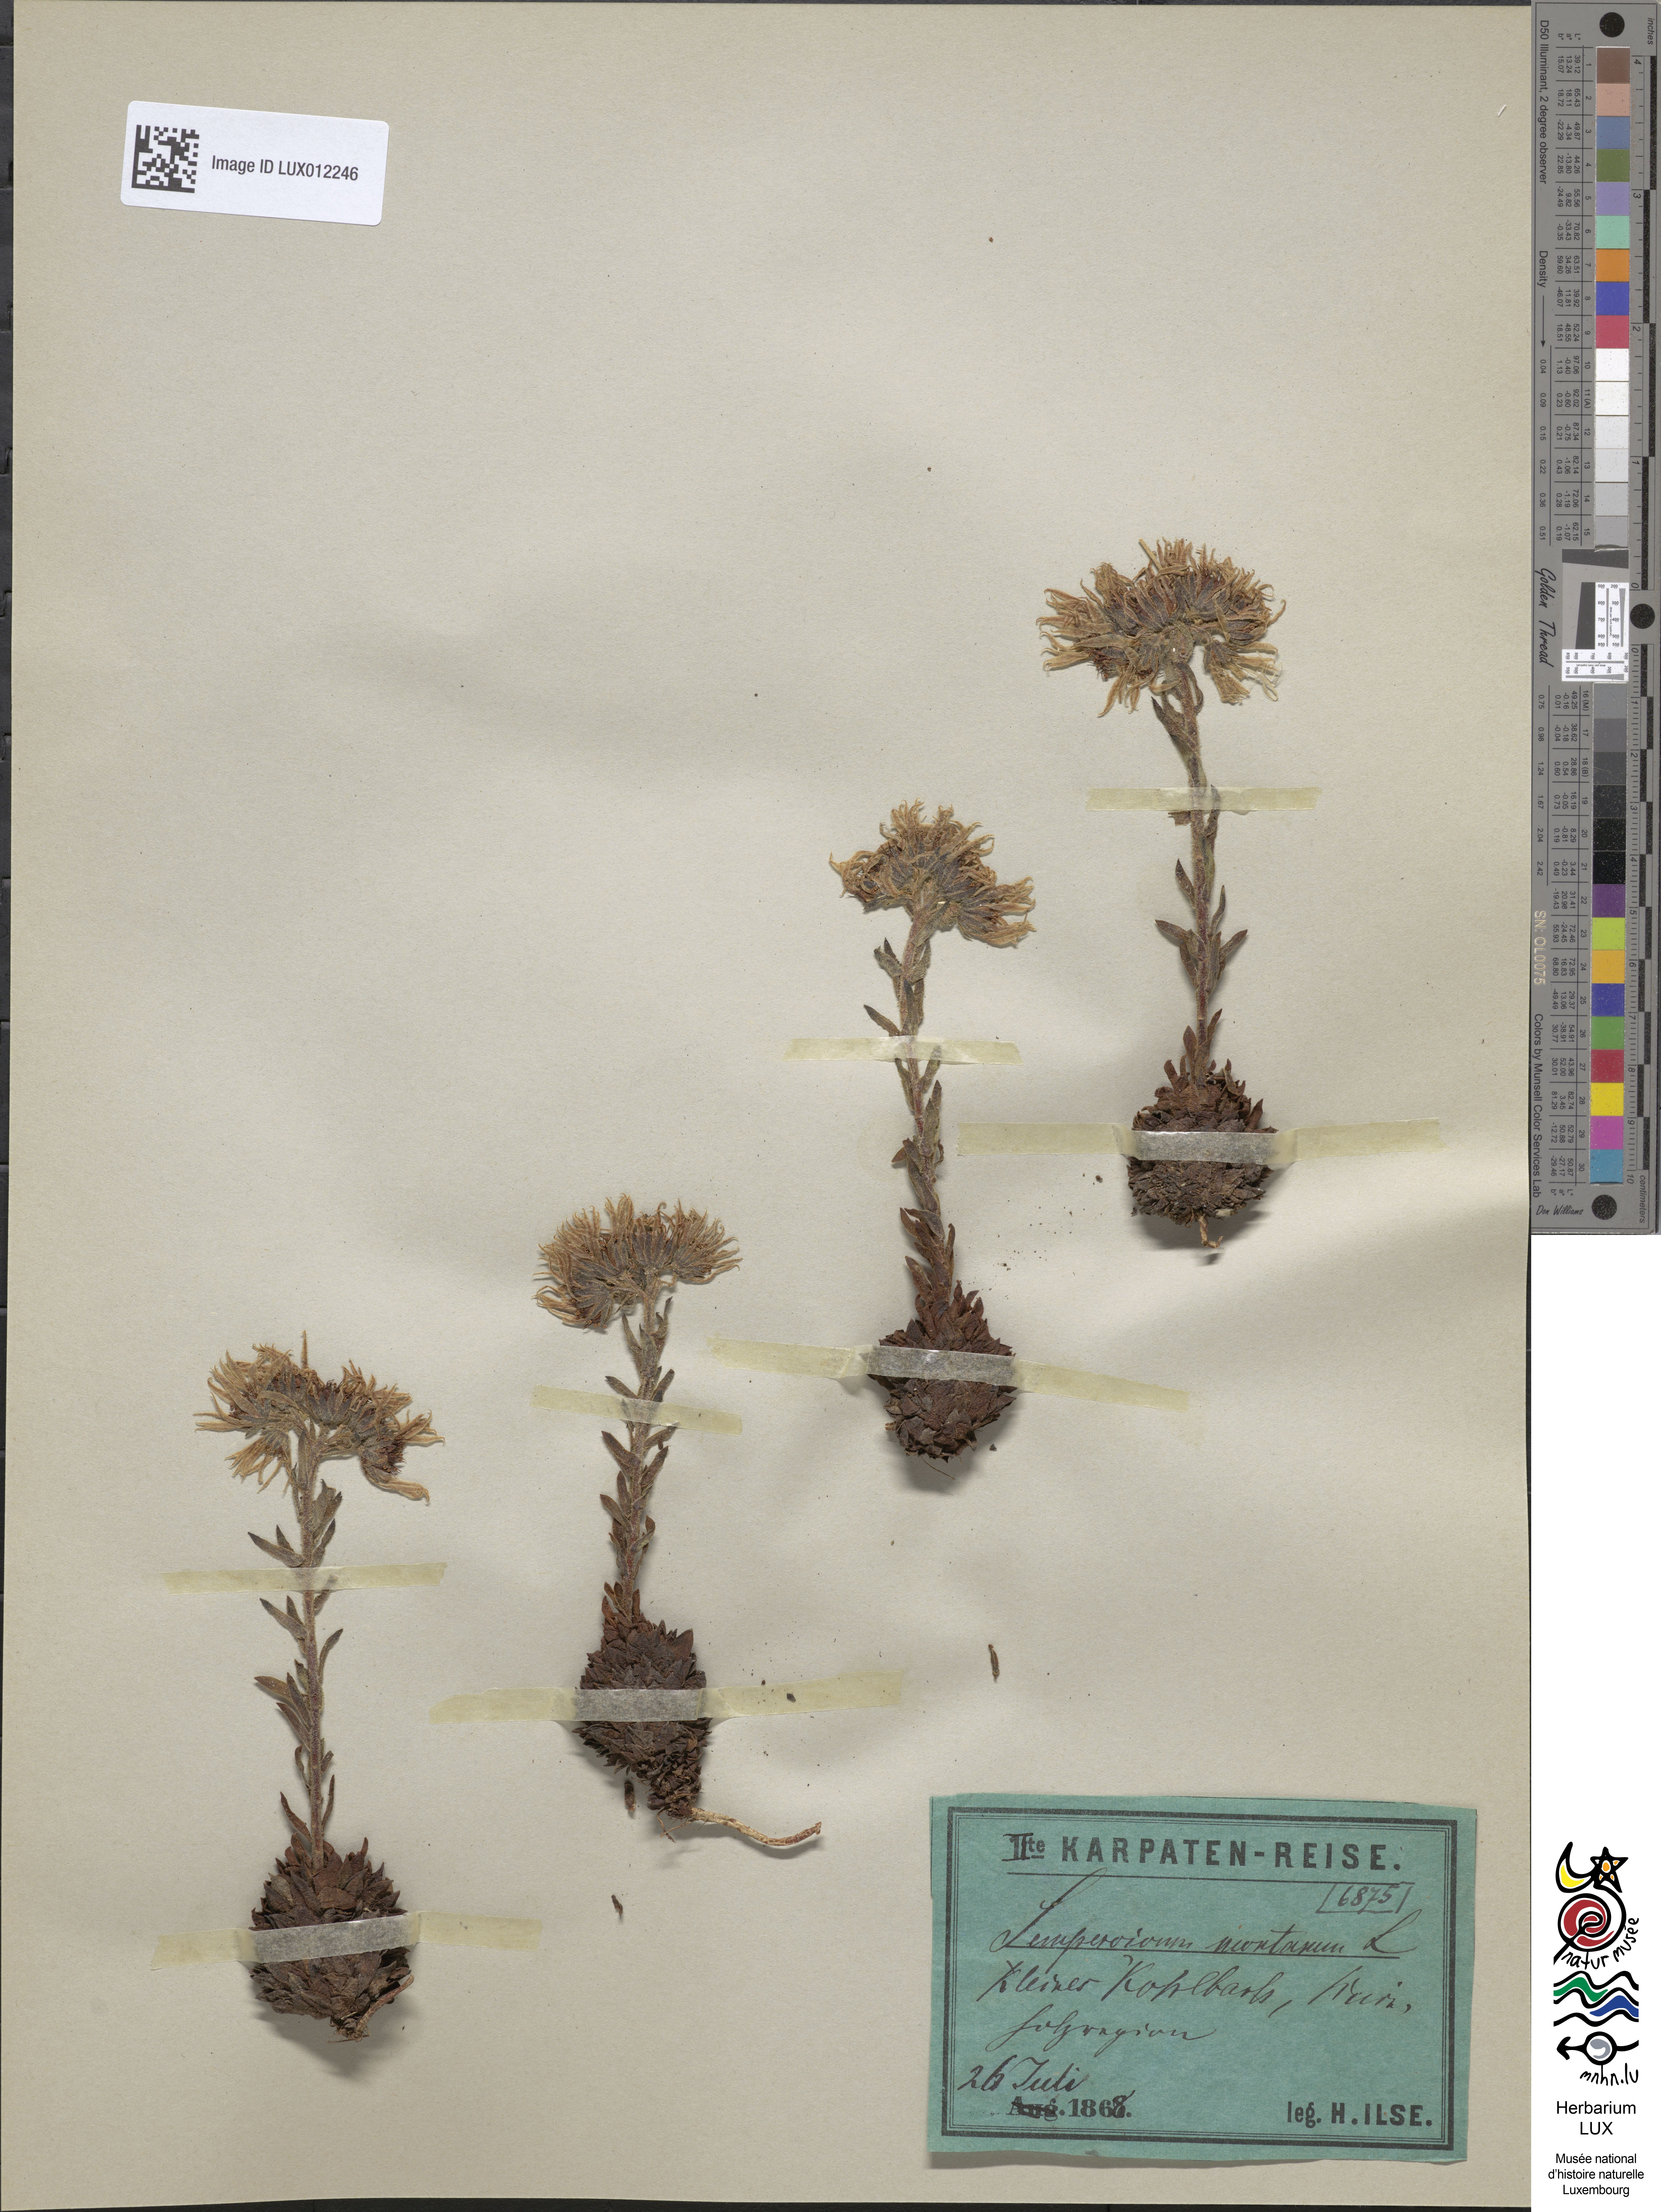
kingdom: Plantae
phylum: Tracheophyta
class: Magnoliopsida
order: Saxifragales
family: Crassulaceae
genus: Sempervivum
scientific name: Sempervivum montanum
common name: Mountain house-leek
